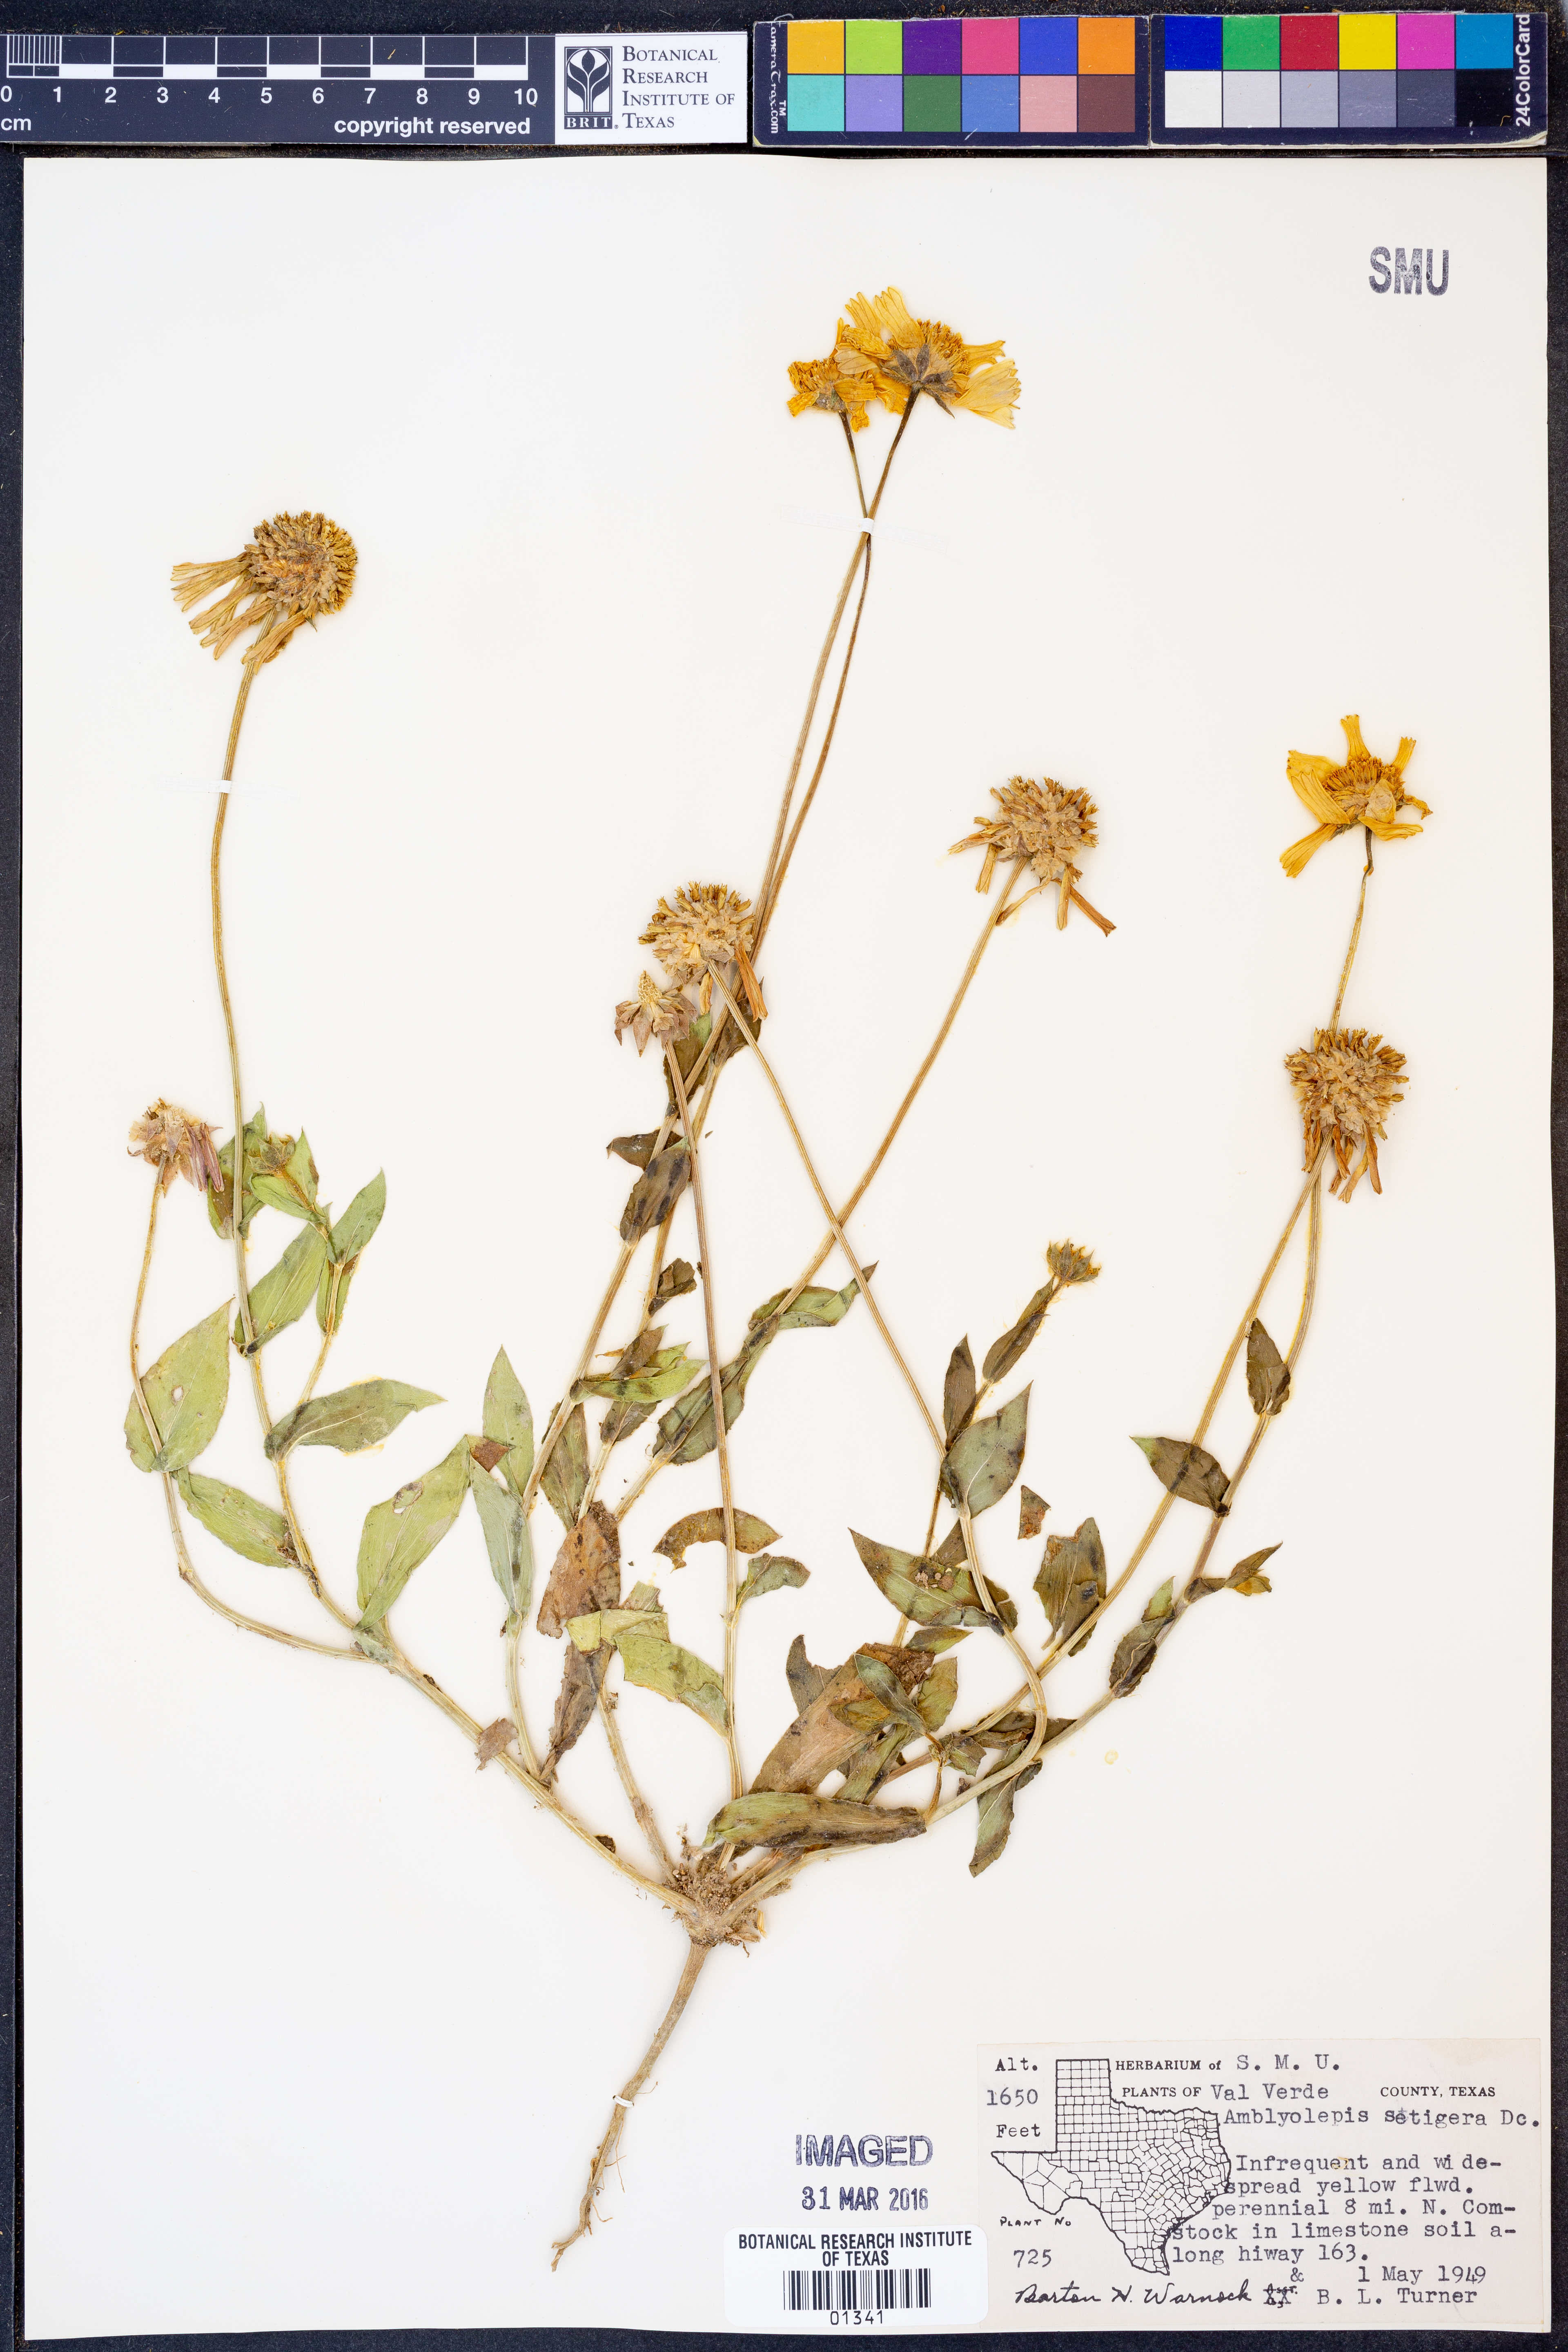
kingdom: Plantae
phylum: Tracheophyta
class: Magnoliopsida
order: Asterales
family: Asteraceae
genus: Amblyolepis
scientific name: Amblyolepis setigera
